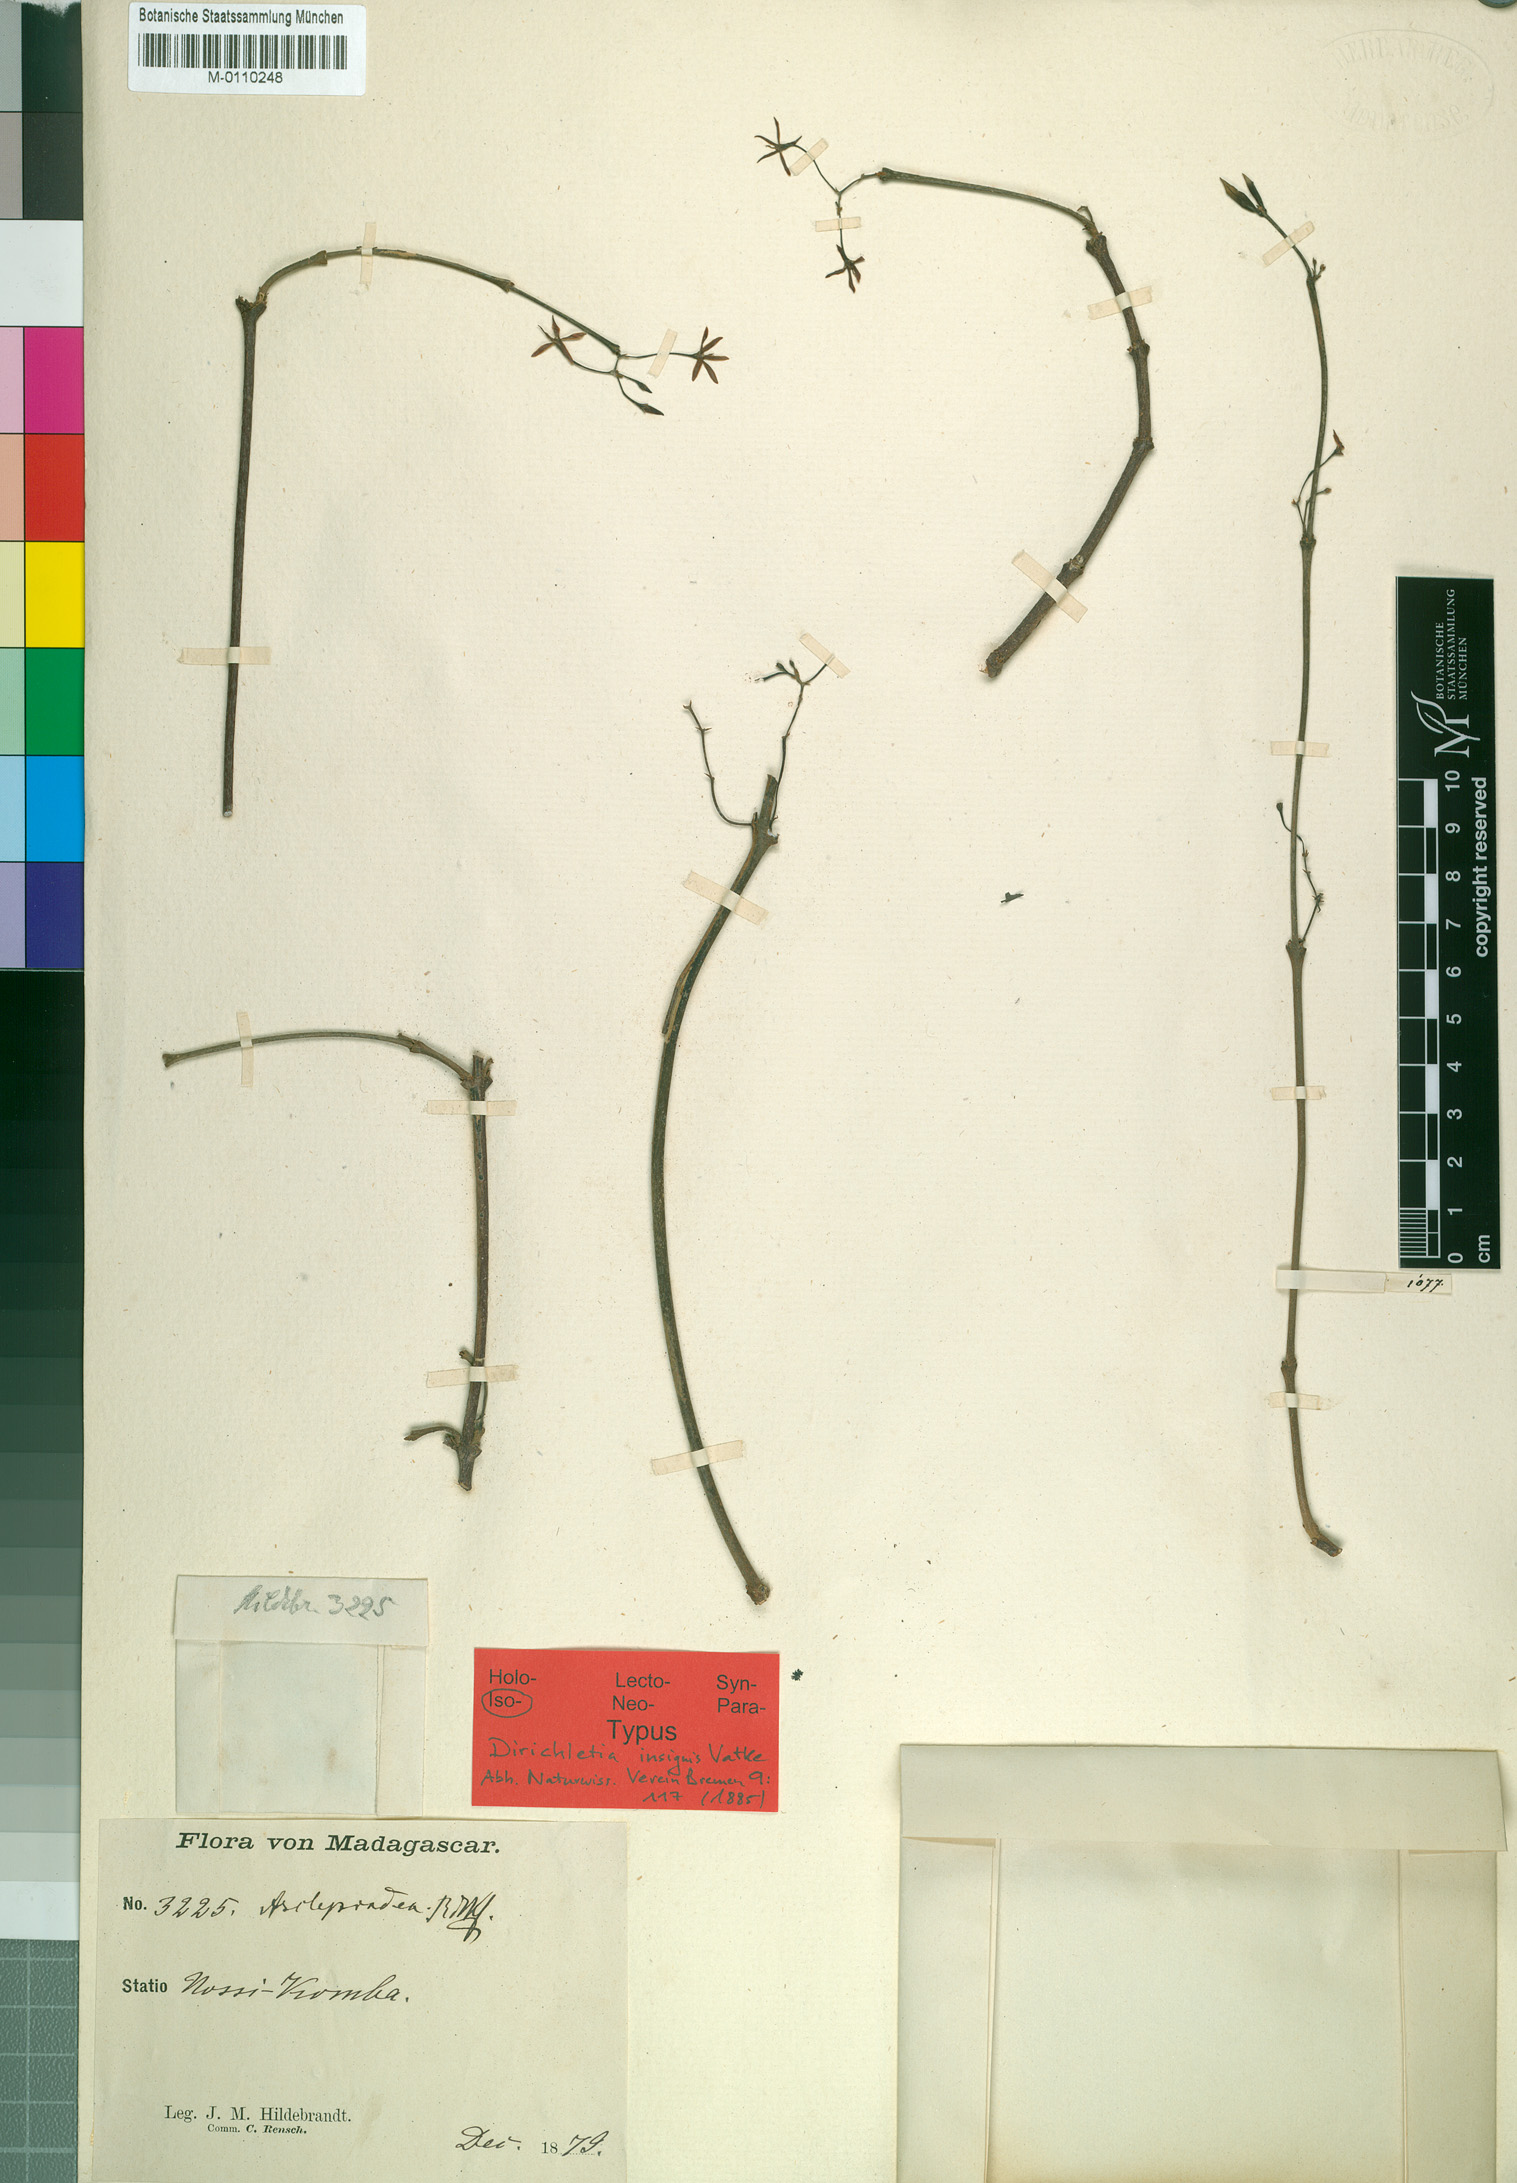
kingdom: Plantae
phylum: Tracheophyta
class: Magnoliopsida
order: Gentianales
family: Rubiaceae
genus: Paracarphalea
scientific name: Paracarphalea kirondron
